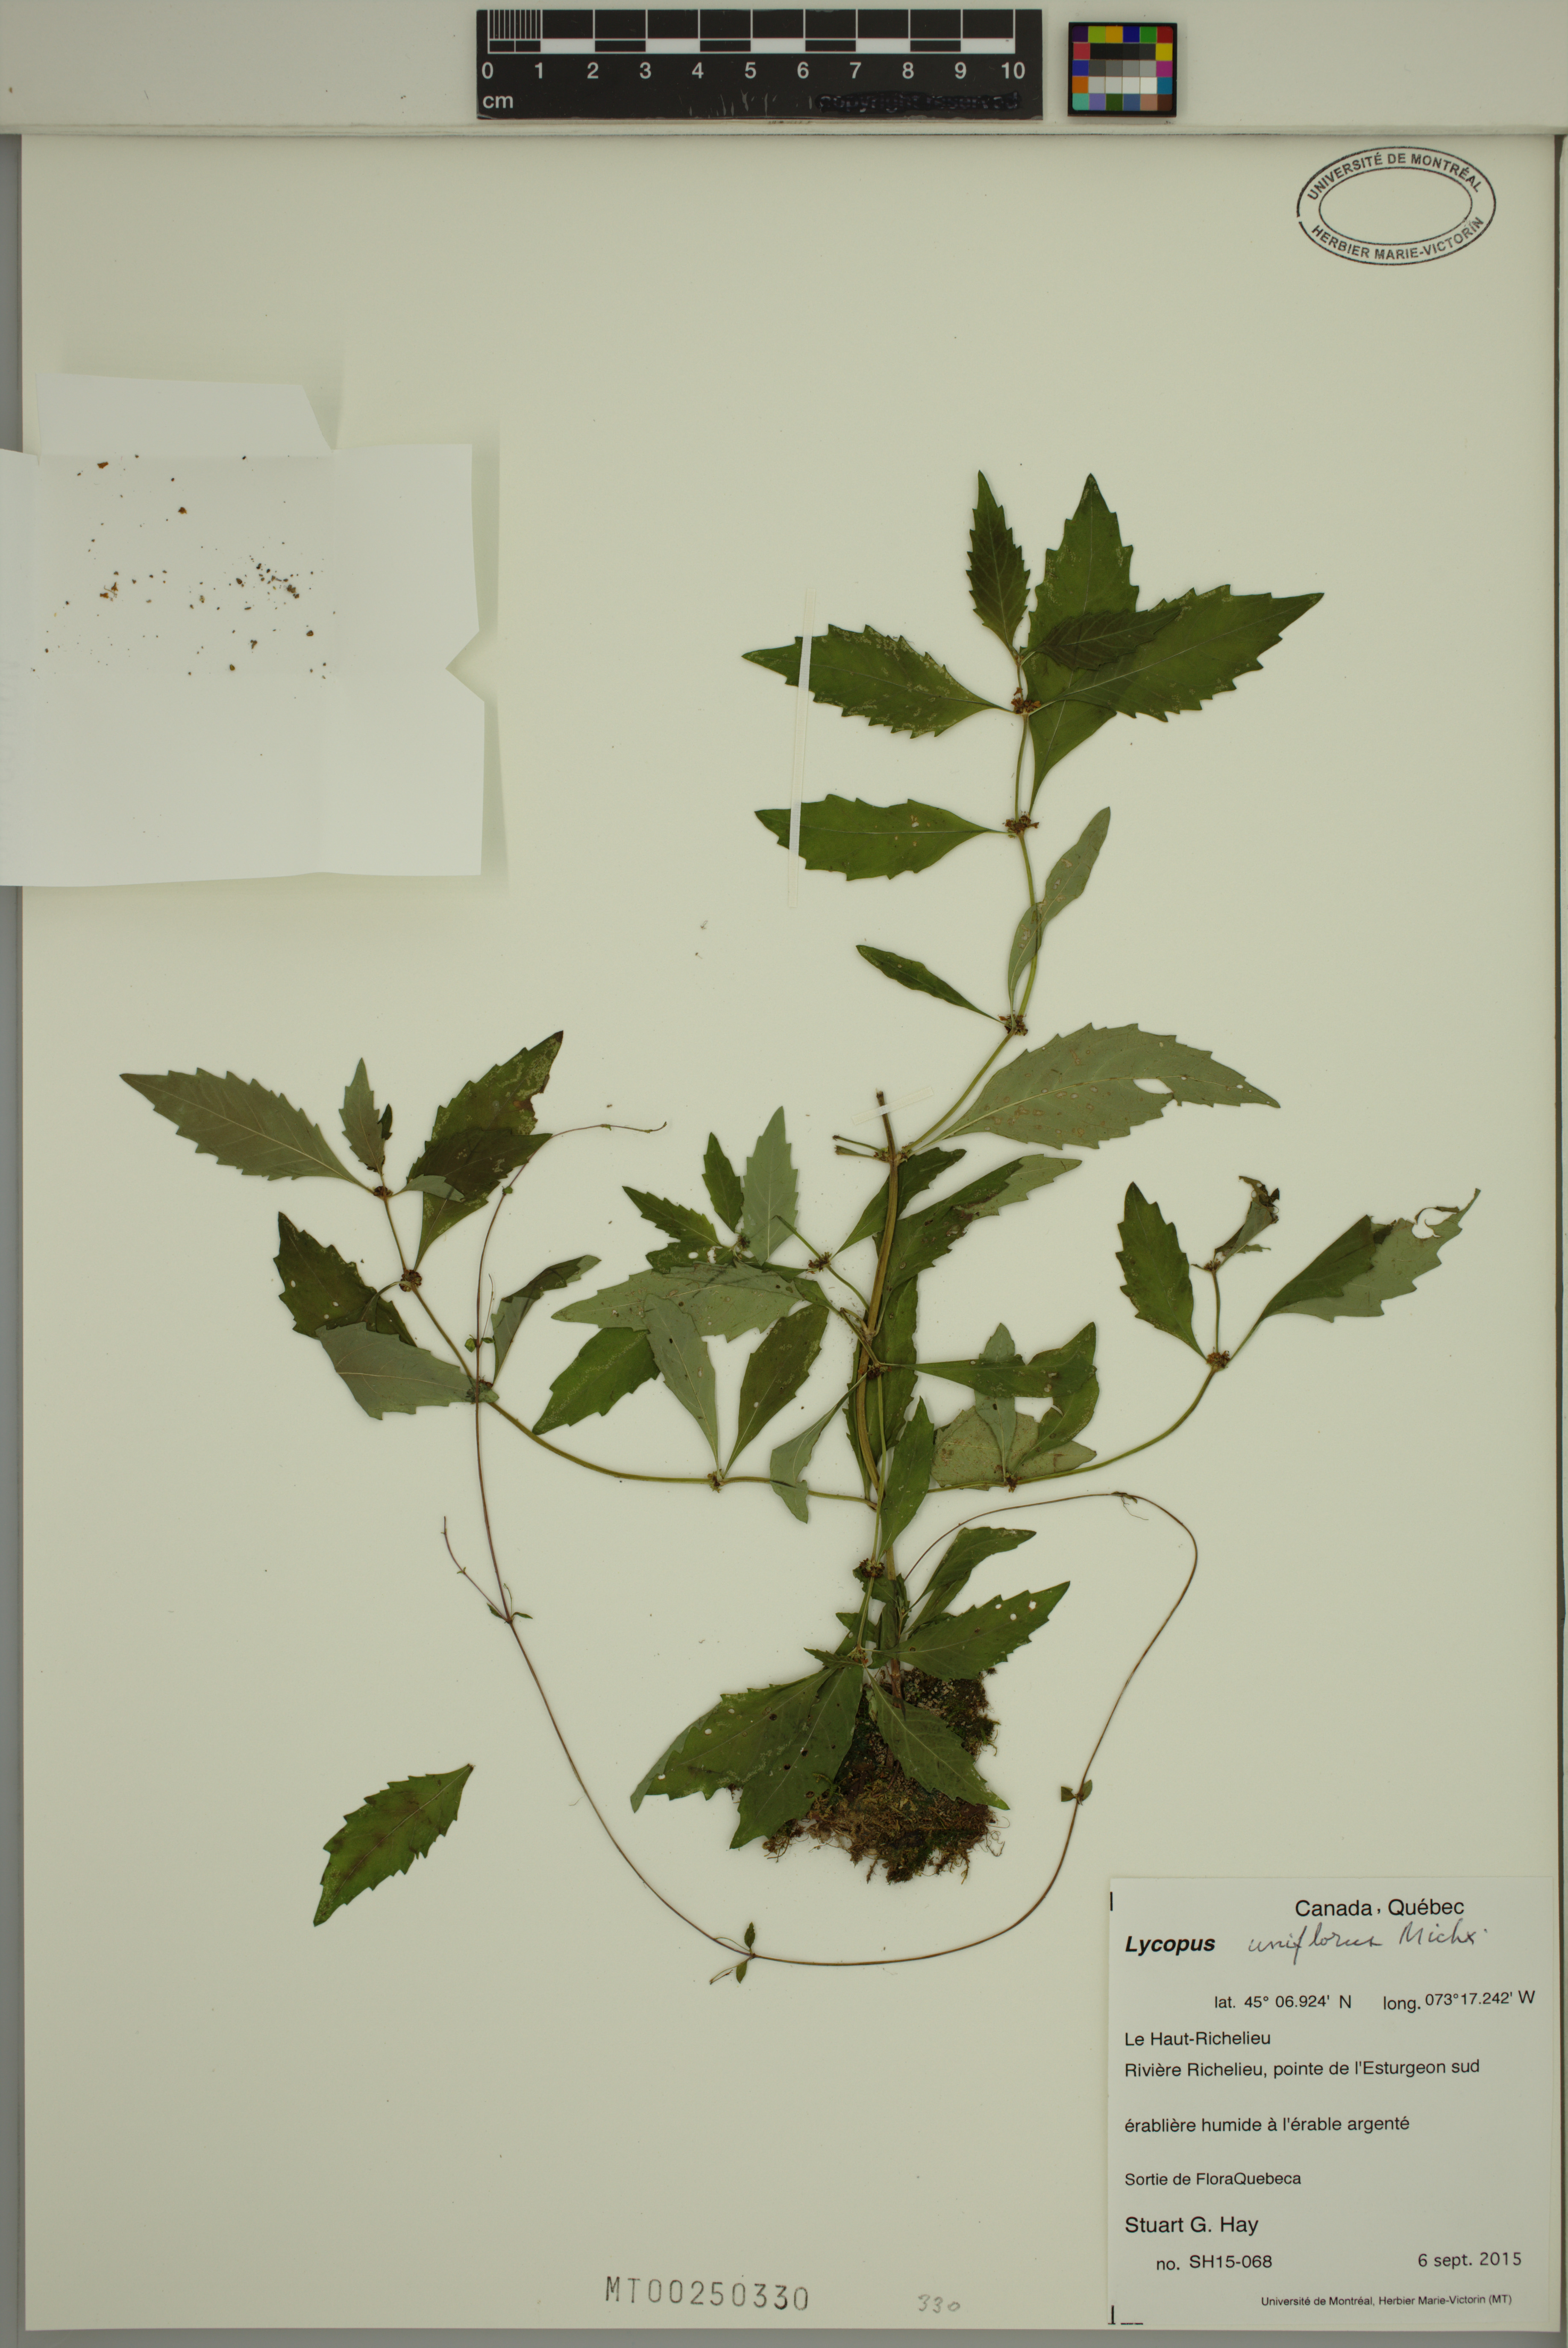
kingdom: Plantae
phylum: Tracheophyta
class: Magnoliopsida
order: Lamiales
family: Lamiaceae
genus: Lycopus
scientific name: Lycopus uniflorus
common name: Northern bugleweed
